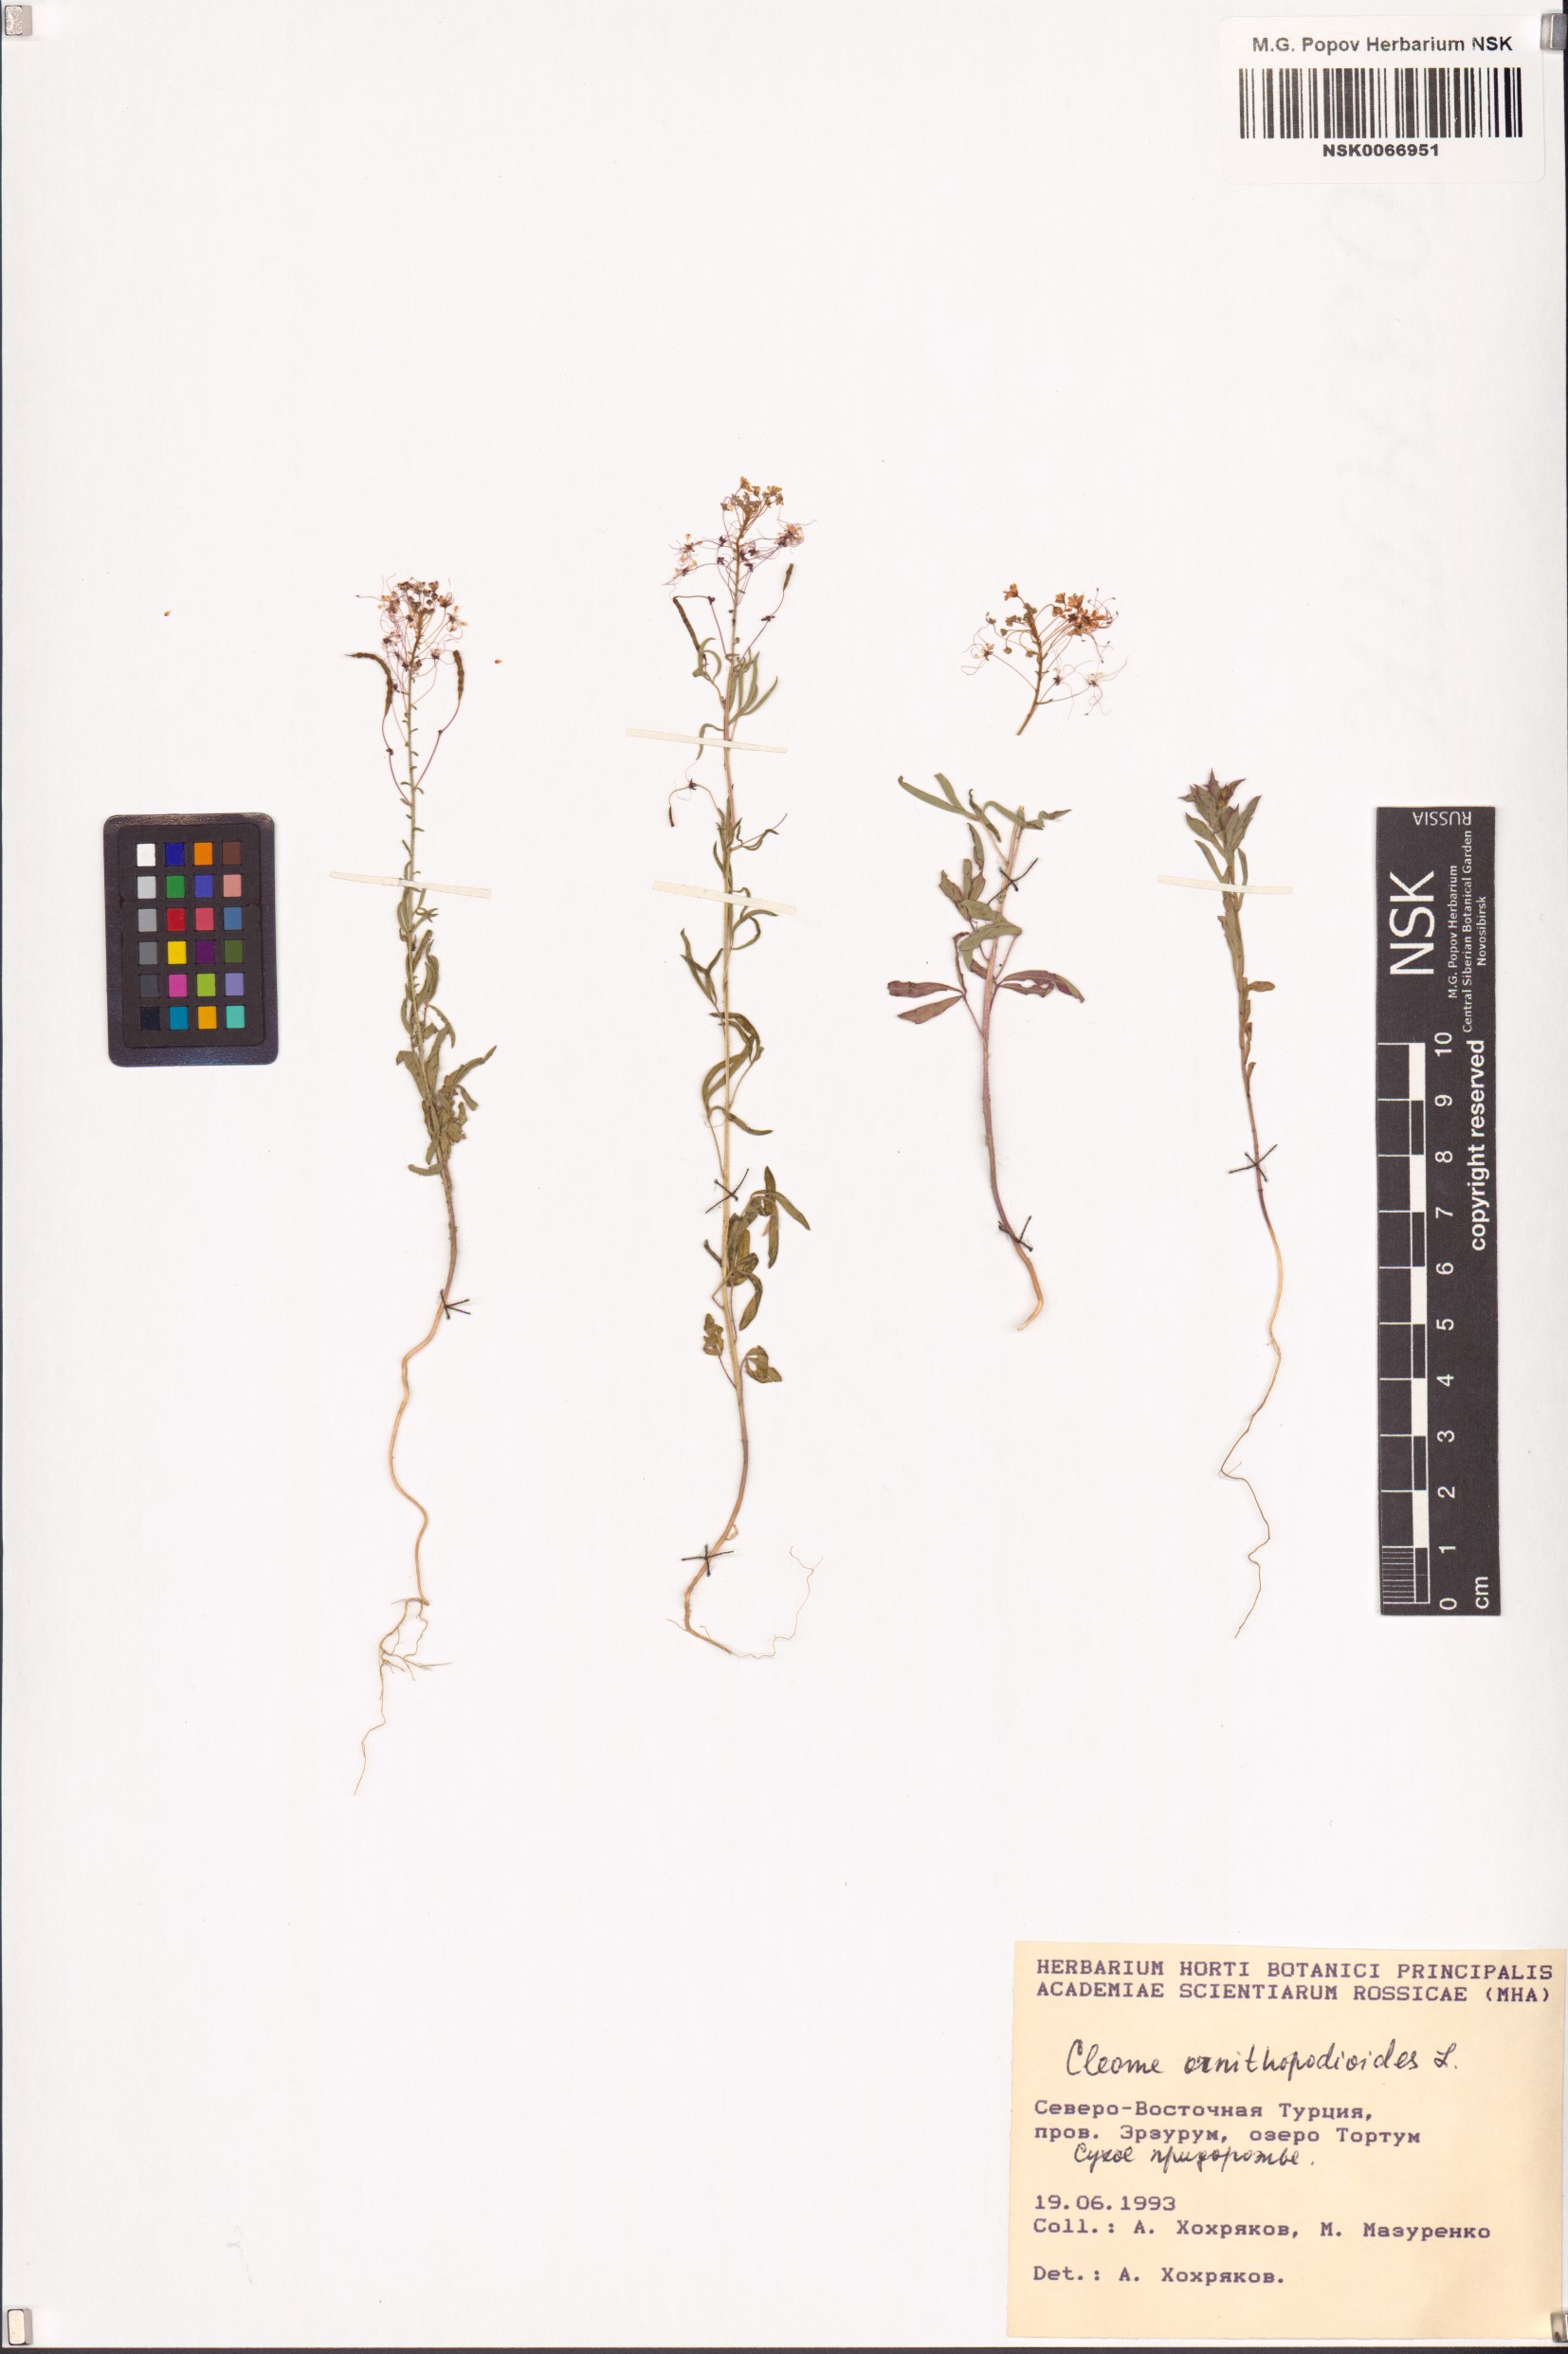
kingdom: Plantae
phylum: Tracheophyta
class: Magnoliopsida
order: Brassicales
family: Cleomaceae
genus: Cleome
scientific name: Cleome ornithopodioides
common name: Bird spiderflower
